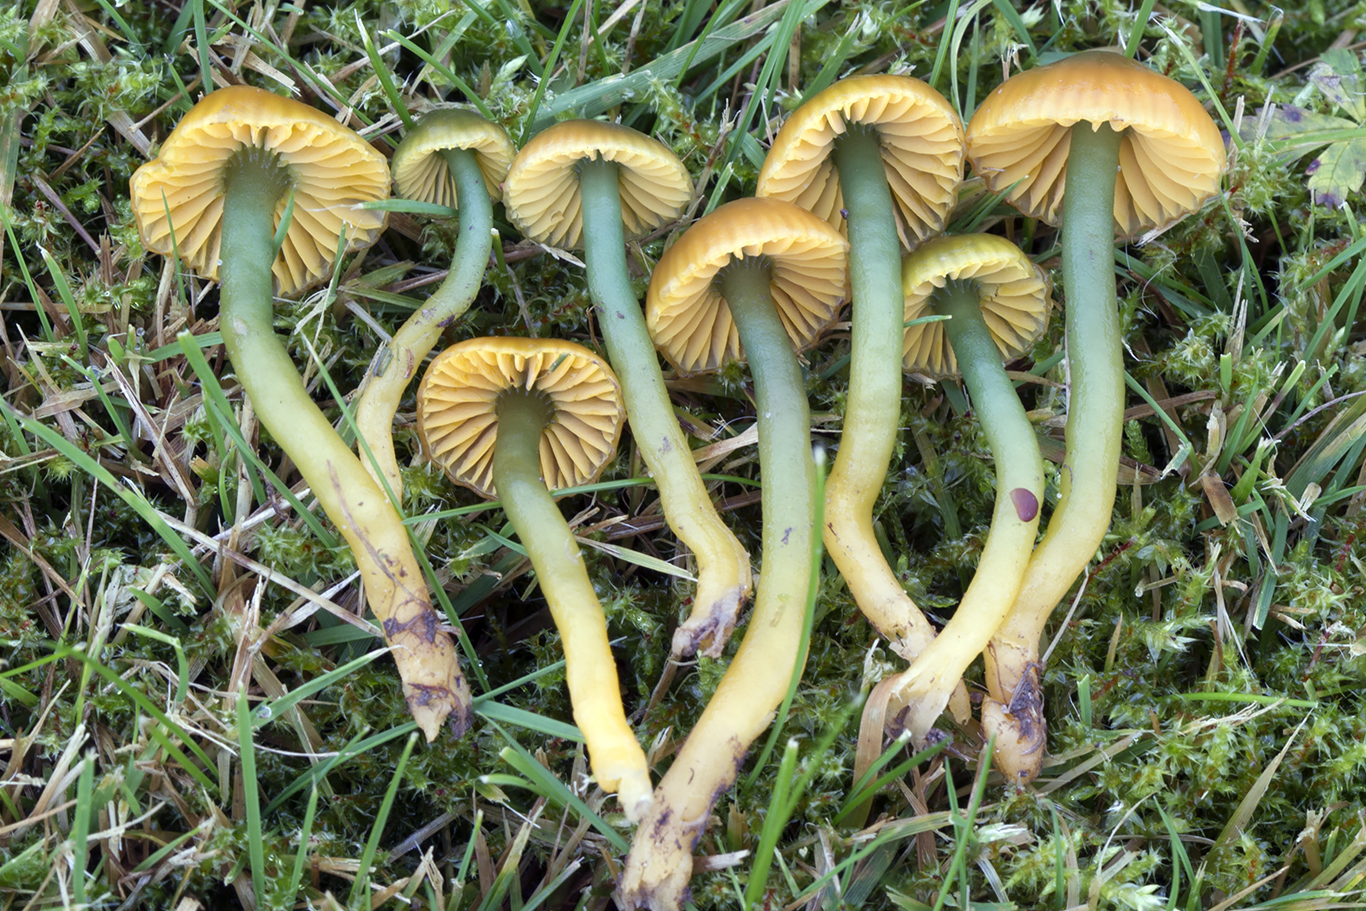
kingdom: Fungi
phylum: Basidiomycota
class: Agaricomycetes
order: Agaricales
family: Hygrophoraceae
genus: Gliophorus
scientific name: Gliophorus psittacinus
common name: papegøje-vokshat
